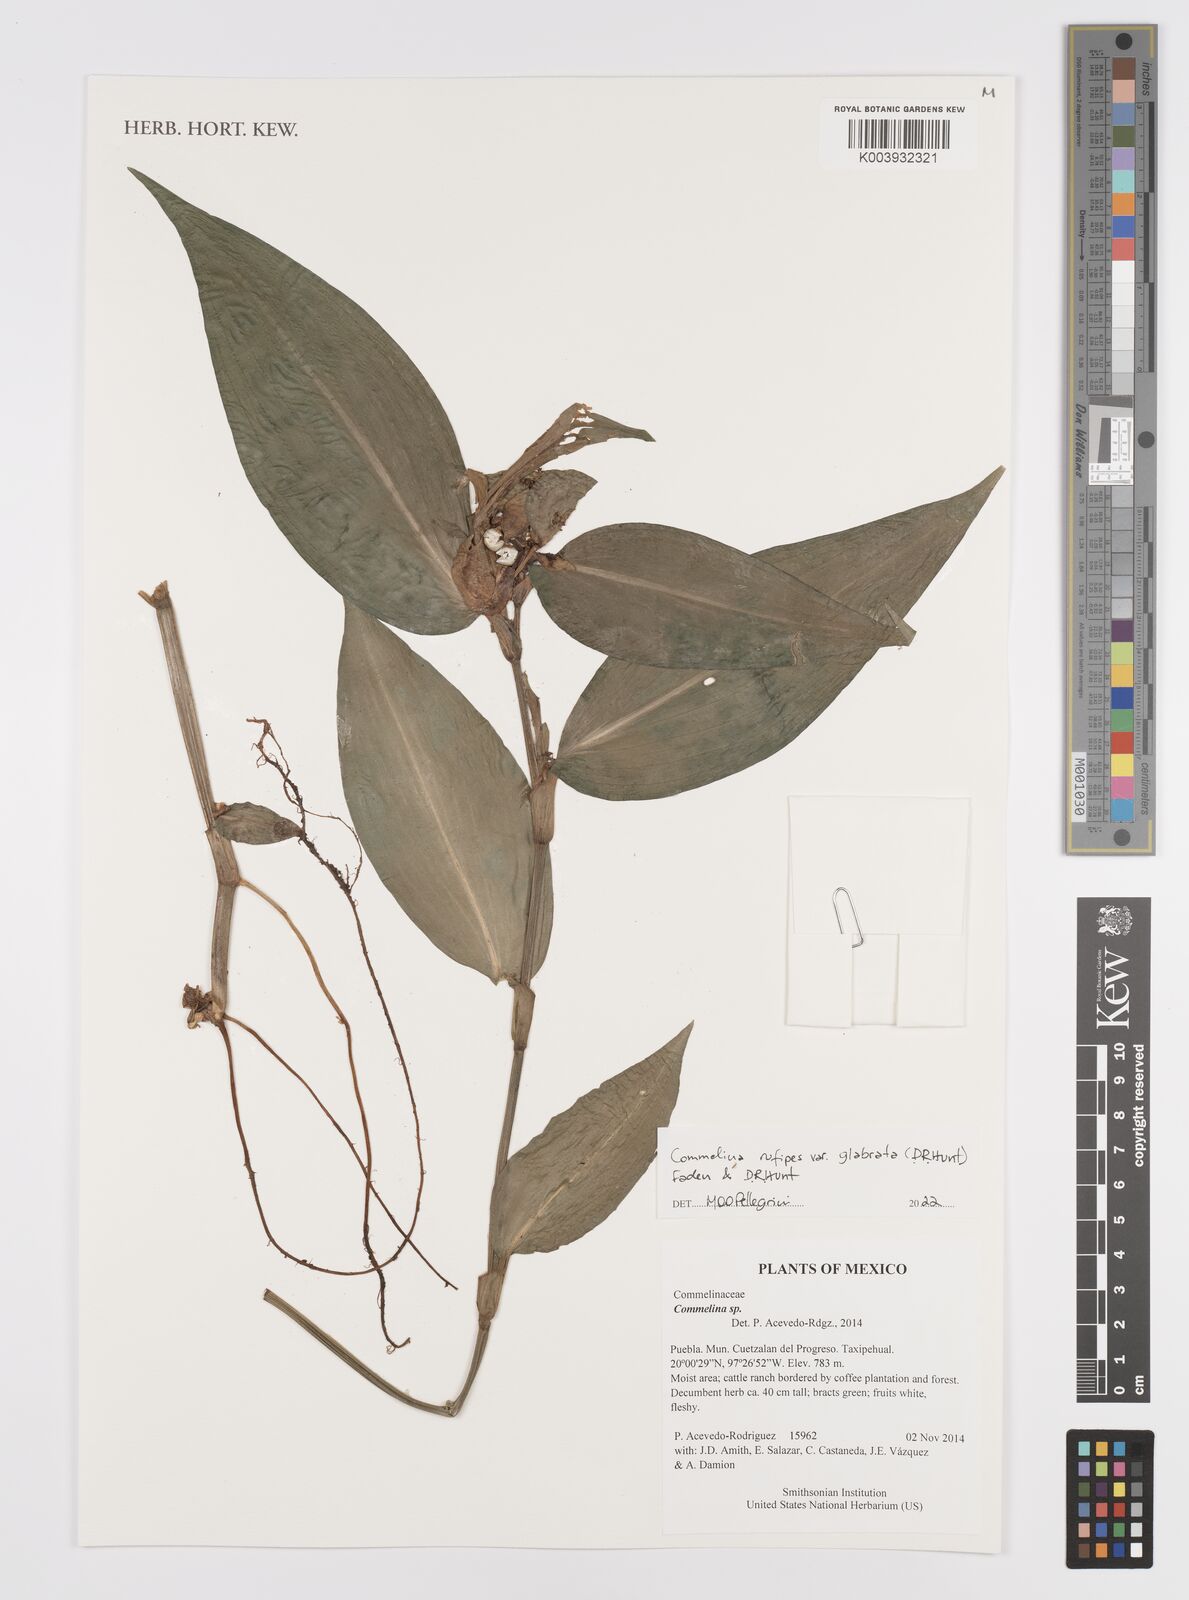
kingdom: Plantae
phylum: Tracheophyta
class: Liliopsida
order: Commelinales
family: Commelinaceae
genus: Commelina
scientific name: Commelina rufipes
